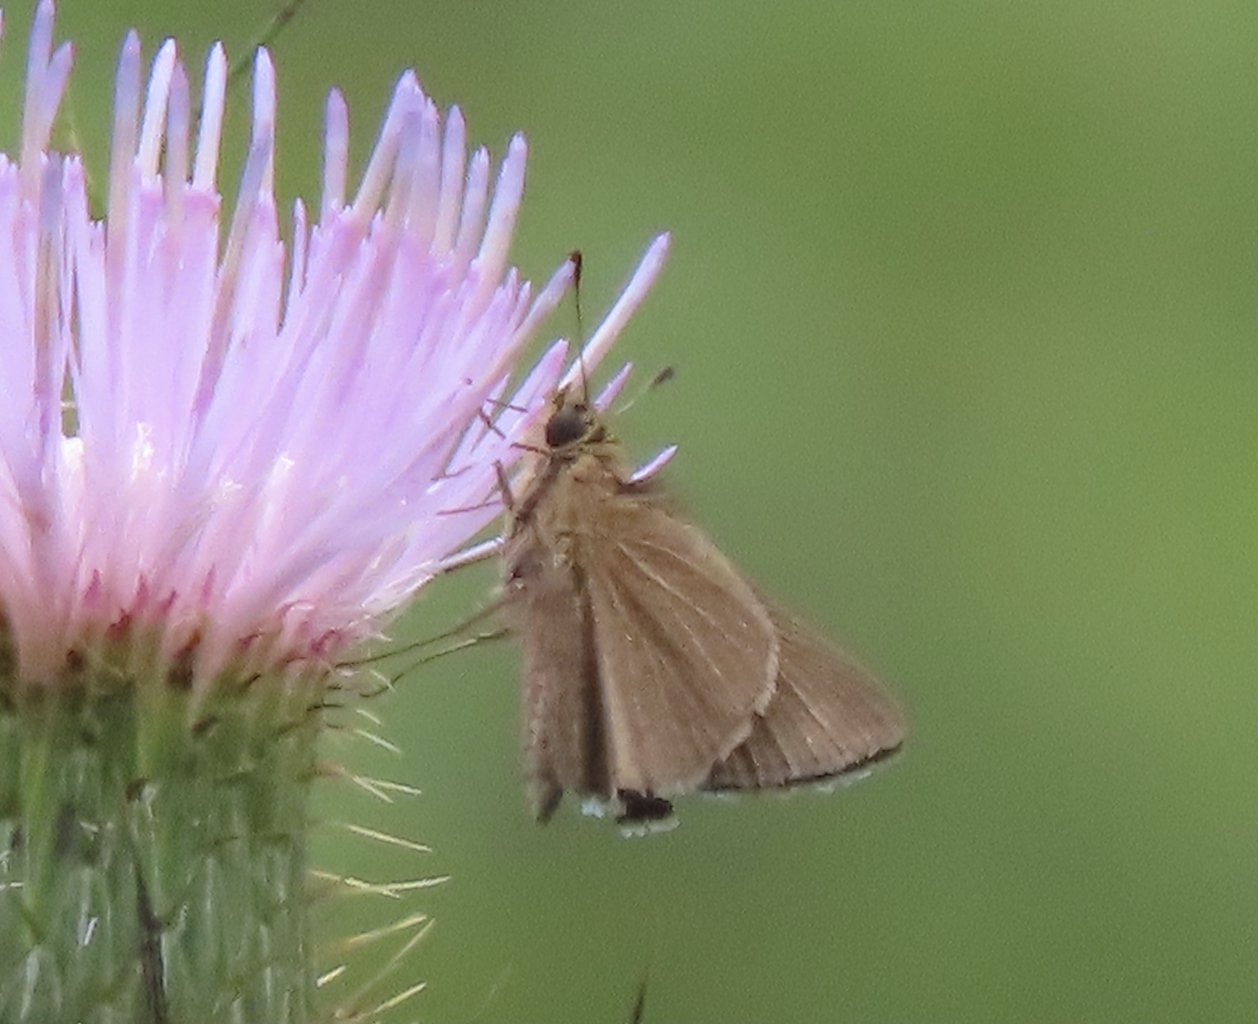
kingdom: Animalia
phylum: Arthropoda
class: Insecta
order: Lepidoptera
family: Hesperiidae
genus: Nastra
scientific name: Nastra lherminier
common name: Swarthy Skipper
